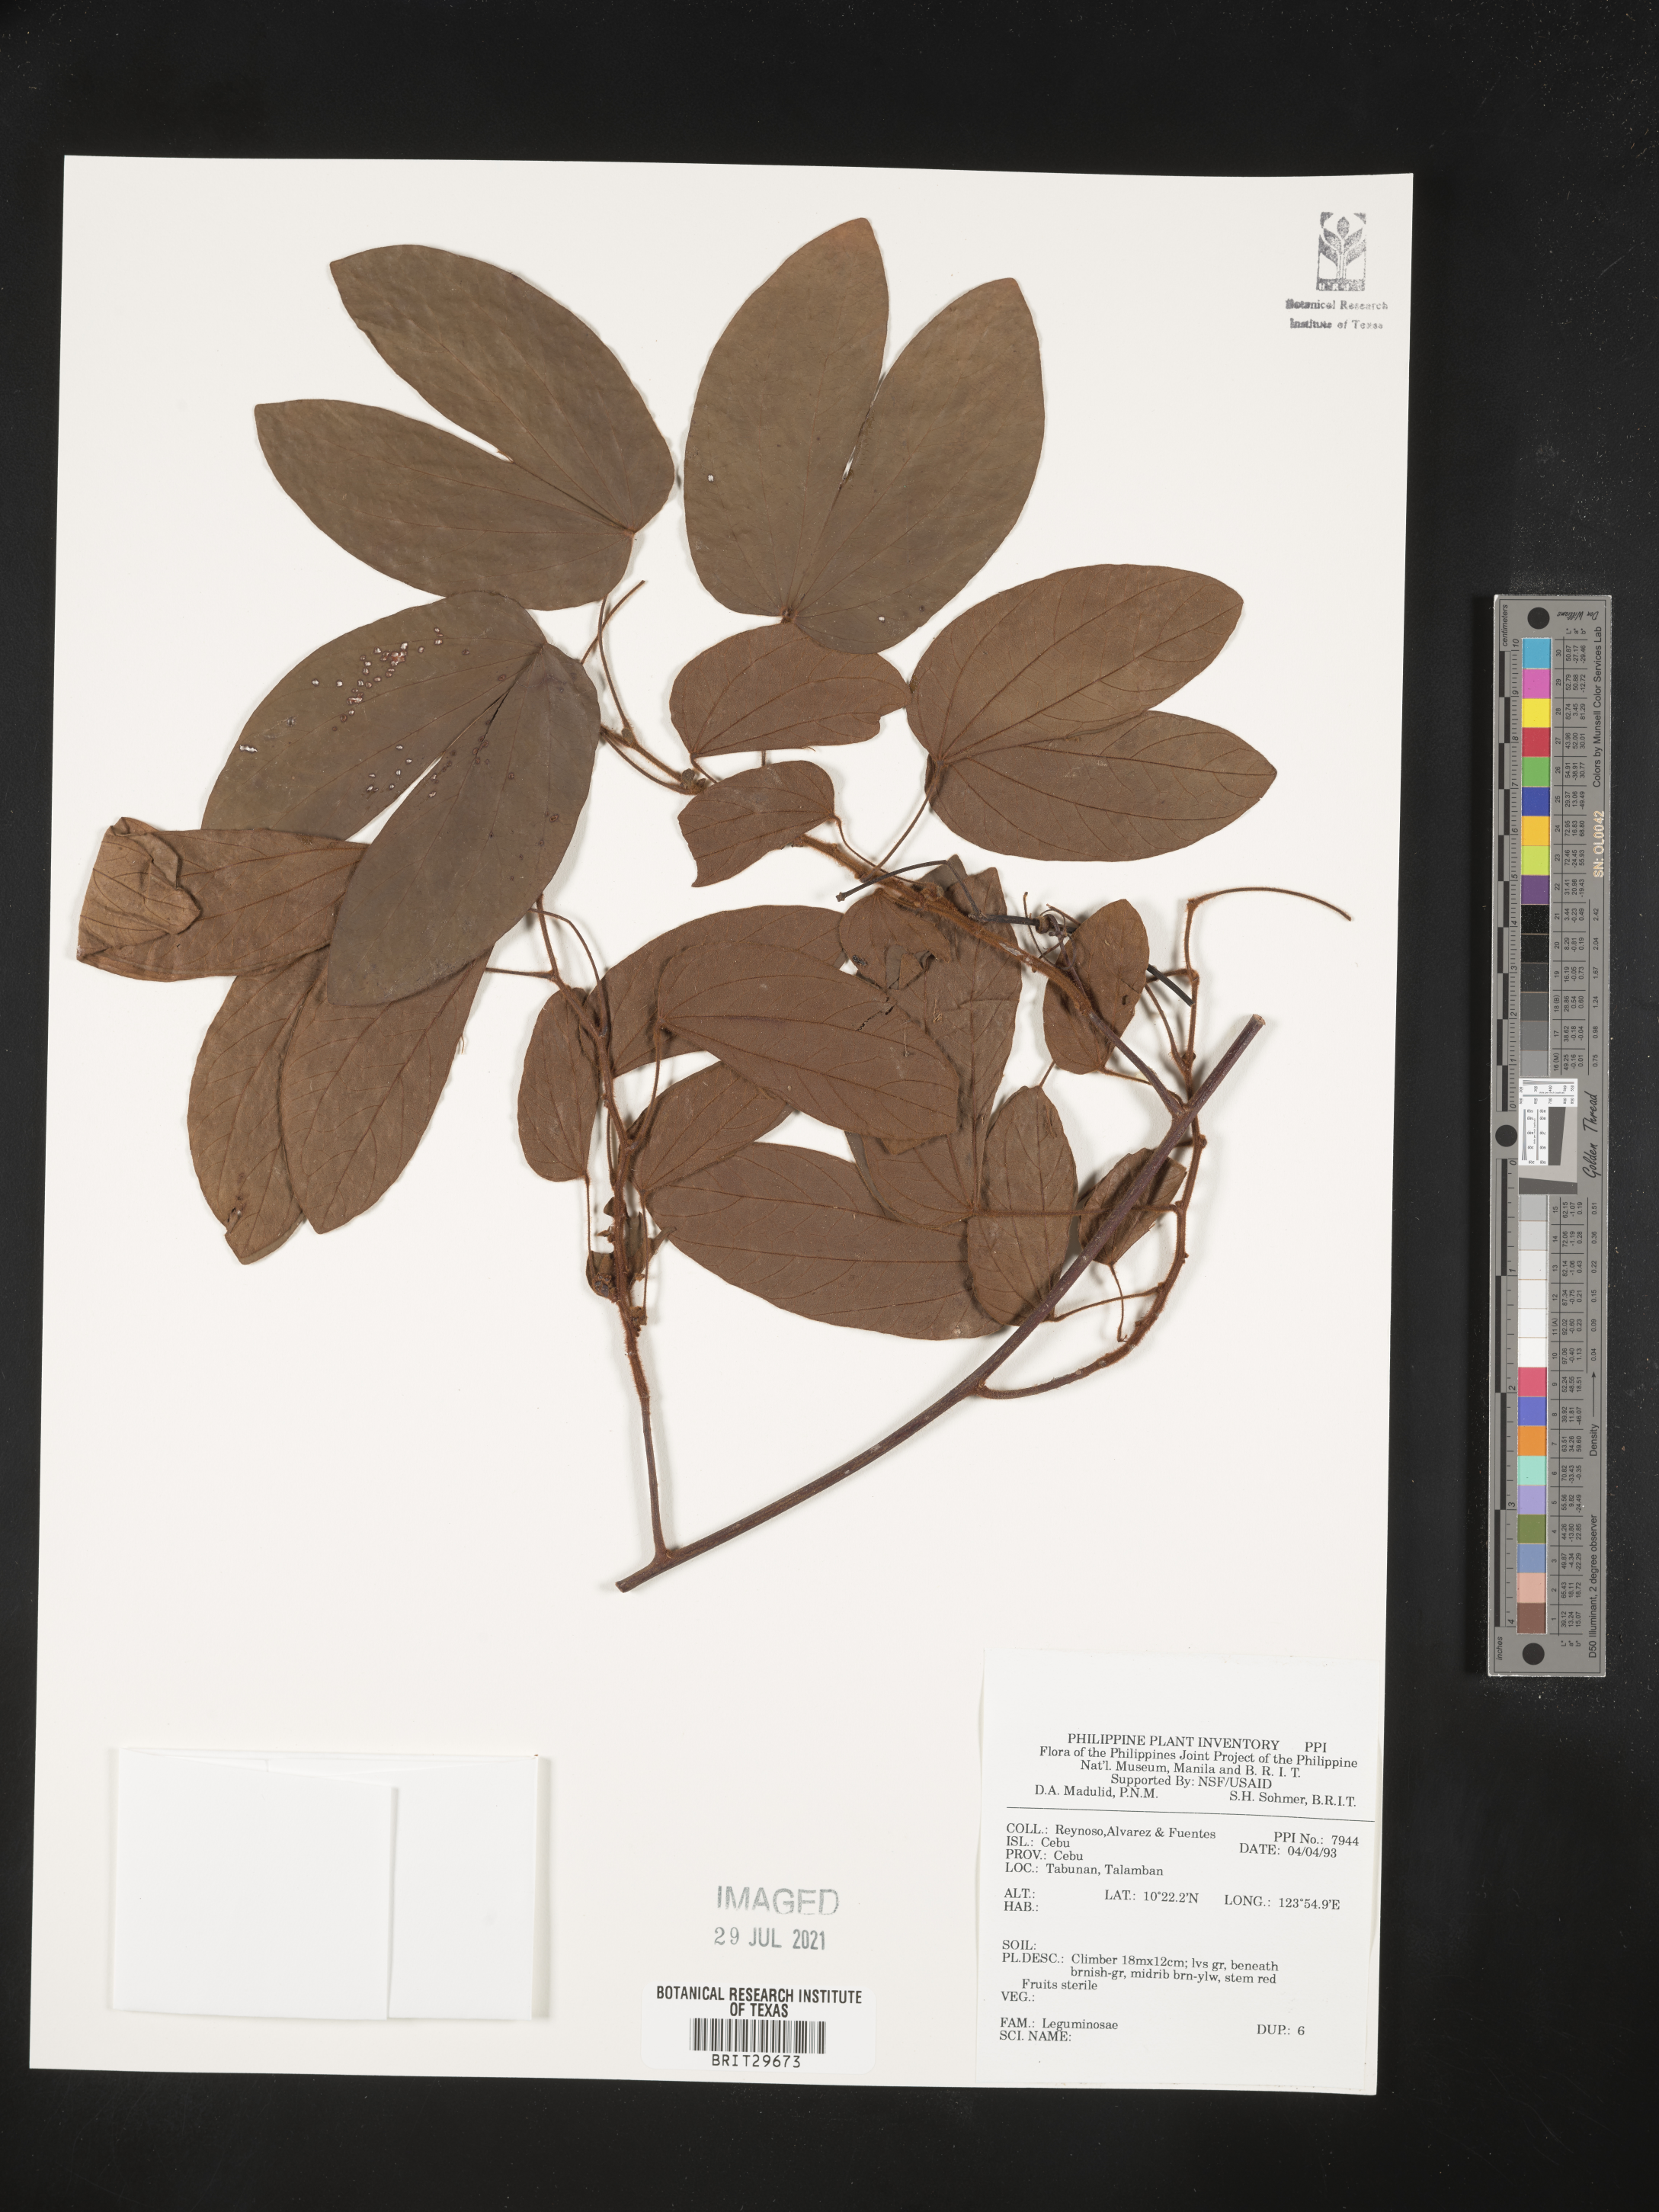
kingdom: Plantae
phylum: Tracheophyta
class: Magnoliopsida
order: Fabales
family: Fabaceae
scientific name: Fabaceae
